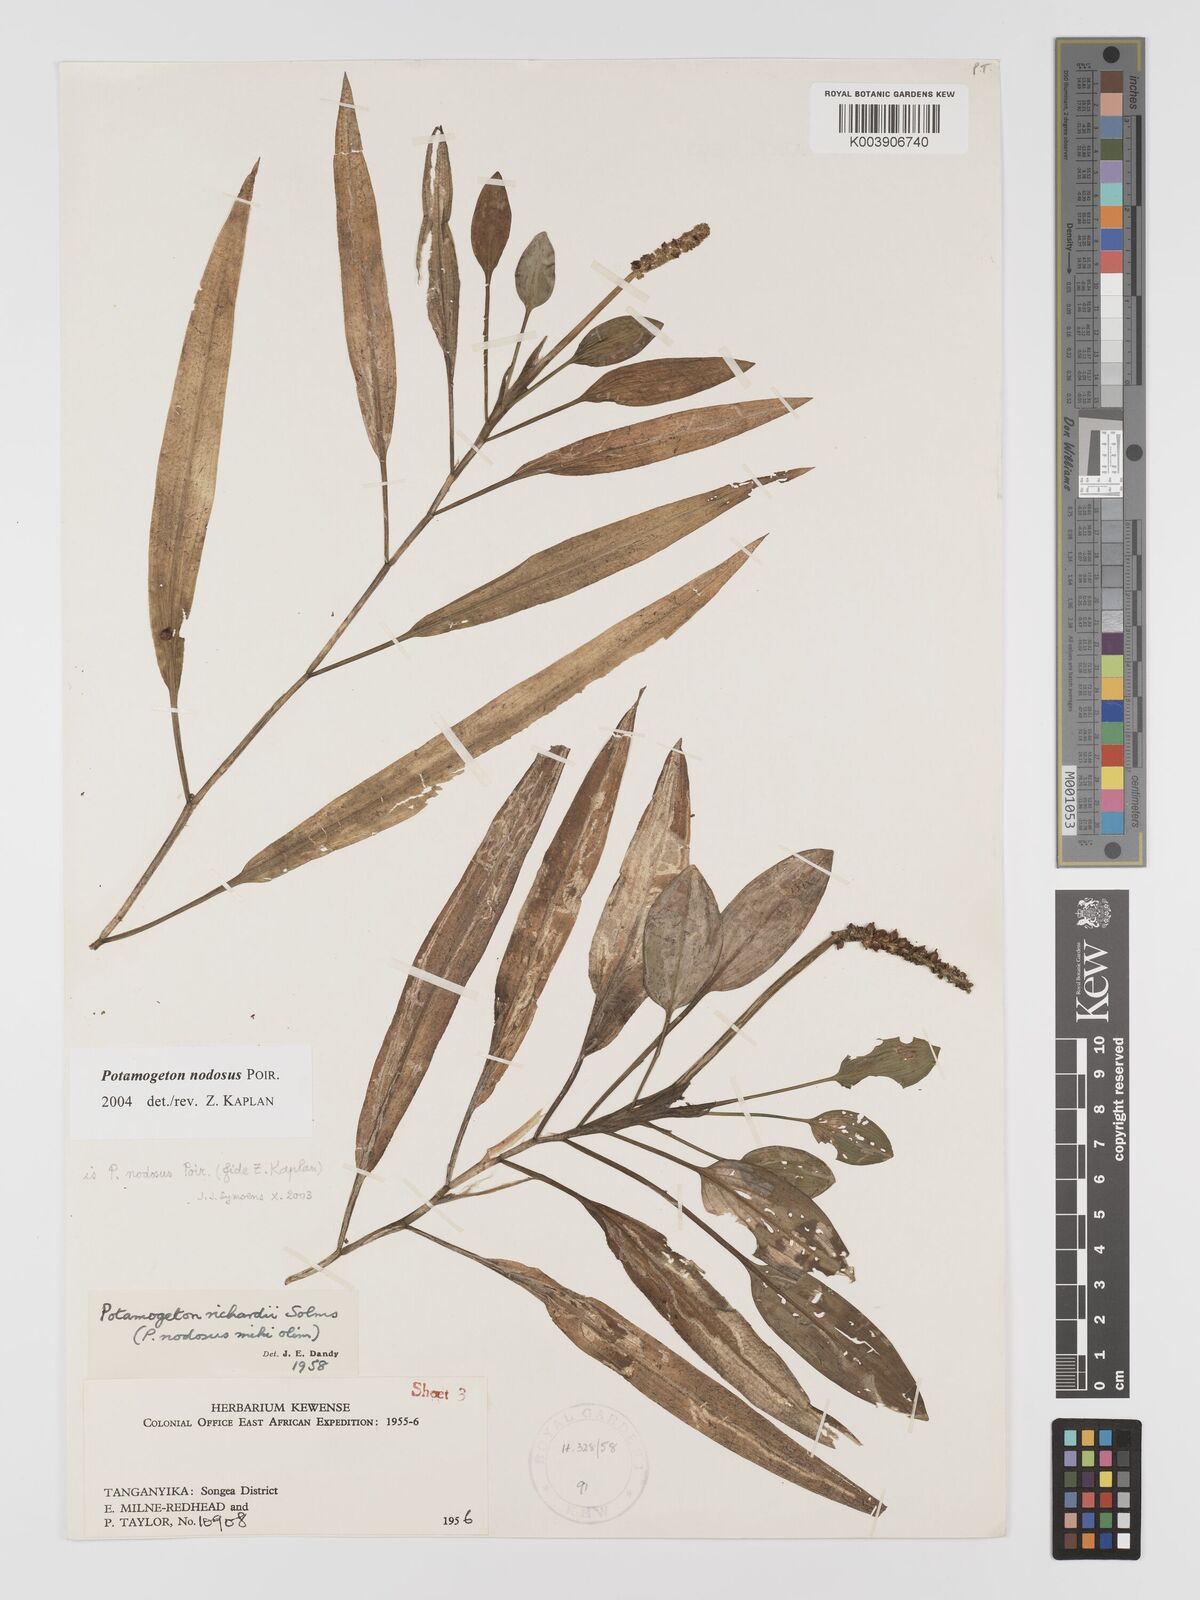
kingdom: Plantae
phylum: Tracheophyta
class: Liliopsida
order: Alismatales
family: Potamogetonaceae
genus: Potamogeton
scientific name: Potamogeton nodosus
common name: Loddon pondweed
